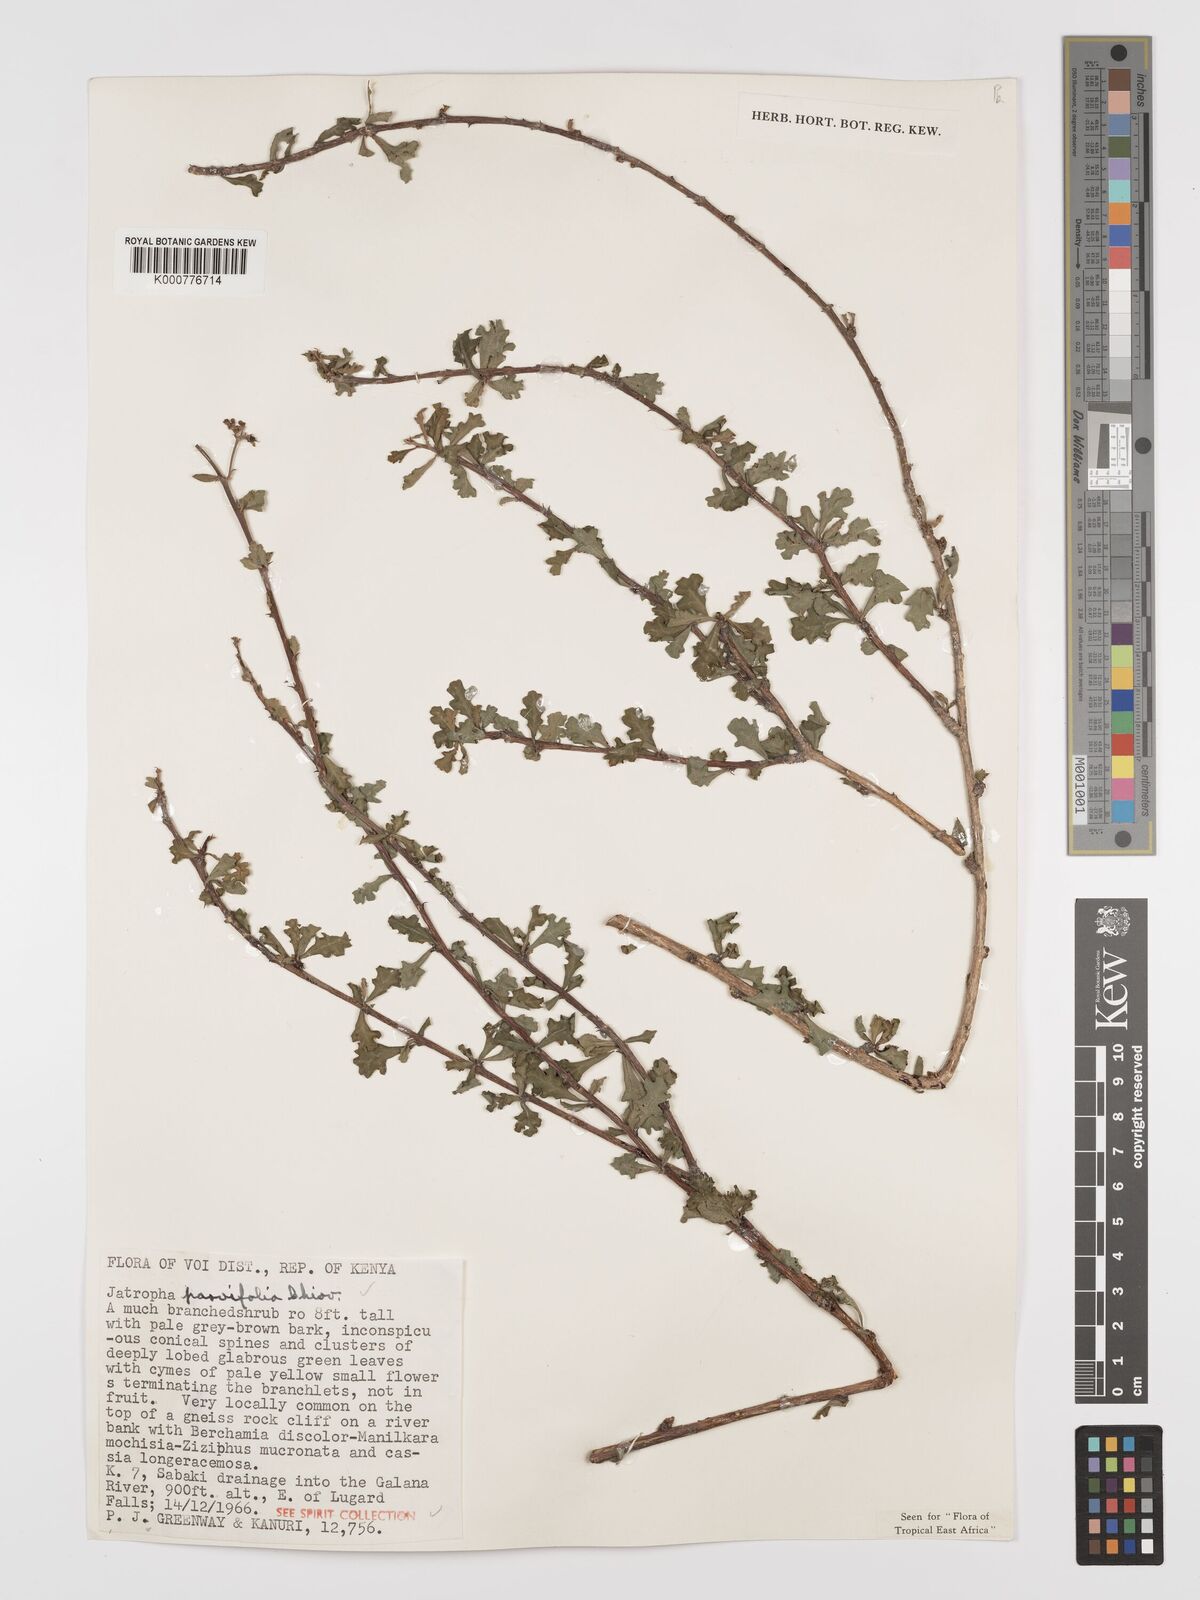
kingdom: Plantae
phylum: Tracheophyta
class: Magnoliopsida
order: Malpighiales
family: Euphorbiaceae
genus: Jatropha
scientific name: Jatropha rivae
